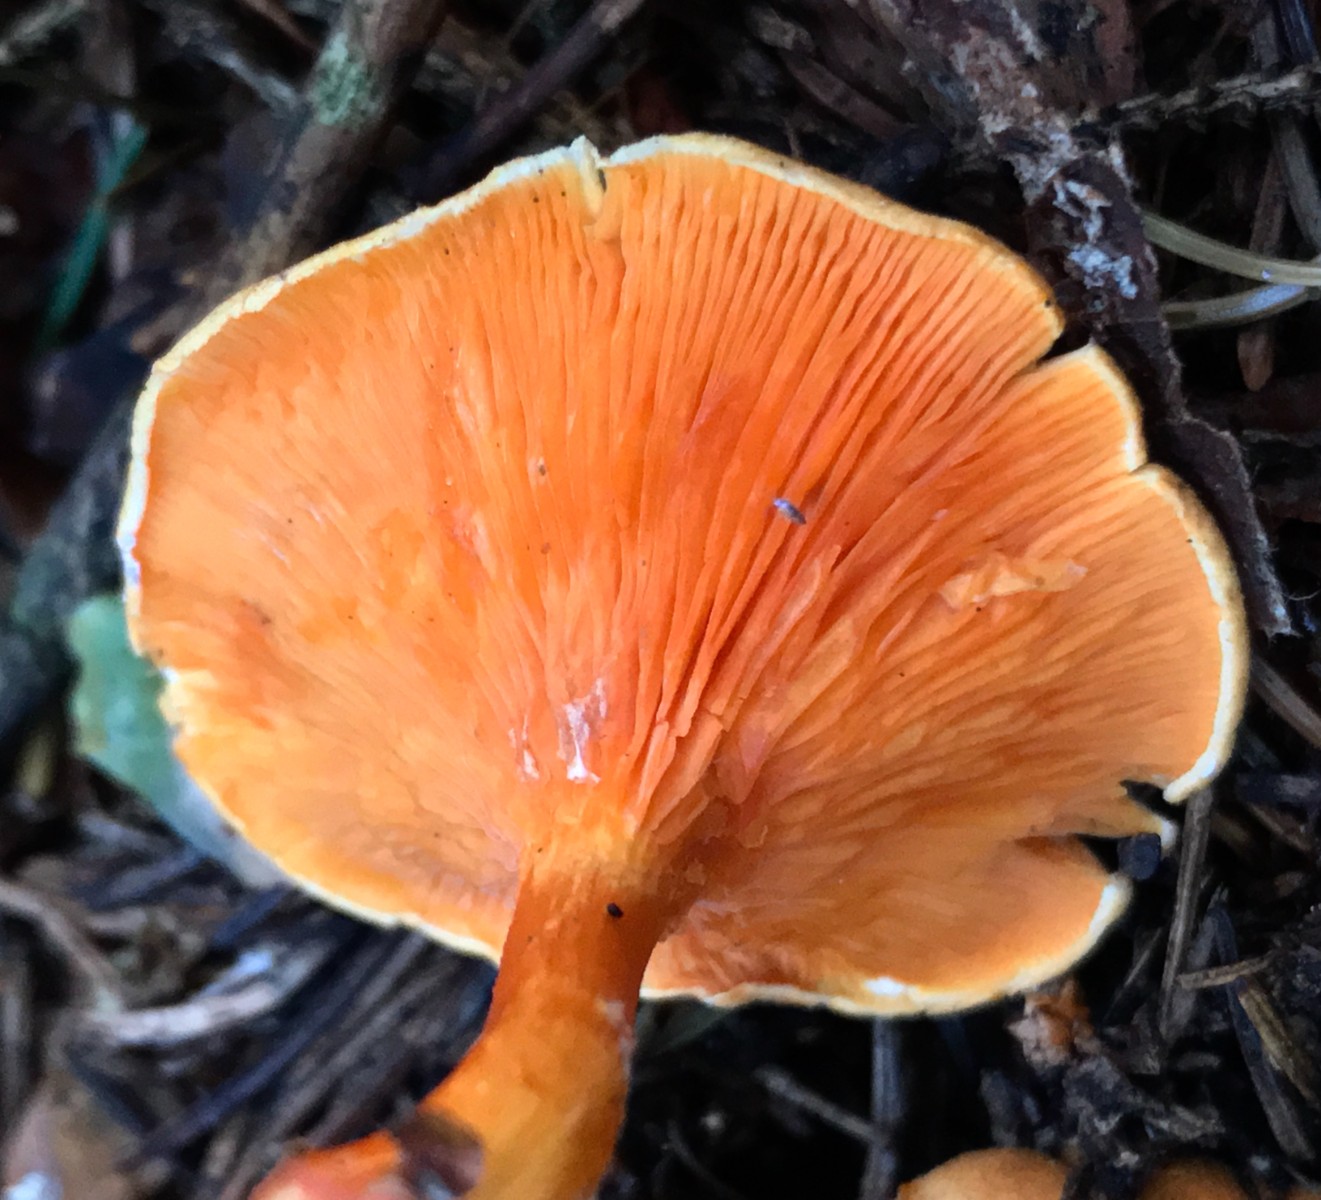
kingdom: Fungi
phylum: Basidiomycota
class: Agaricomycetes
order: Boletales
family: Hygrophoropsidaceae
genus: Hygrophoropsis
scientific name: Hygrophoropsis aurantiaca
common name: almindelig orangekantarel
